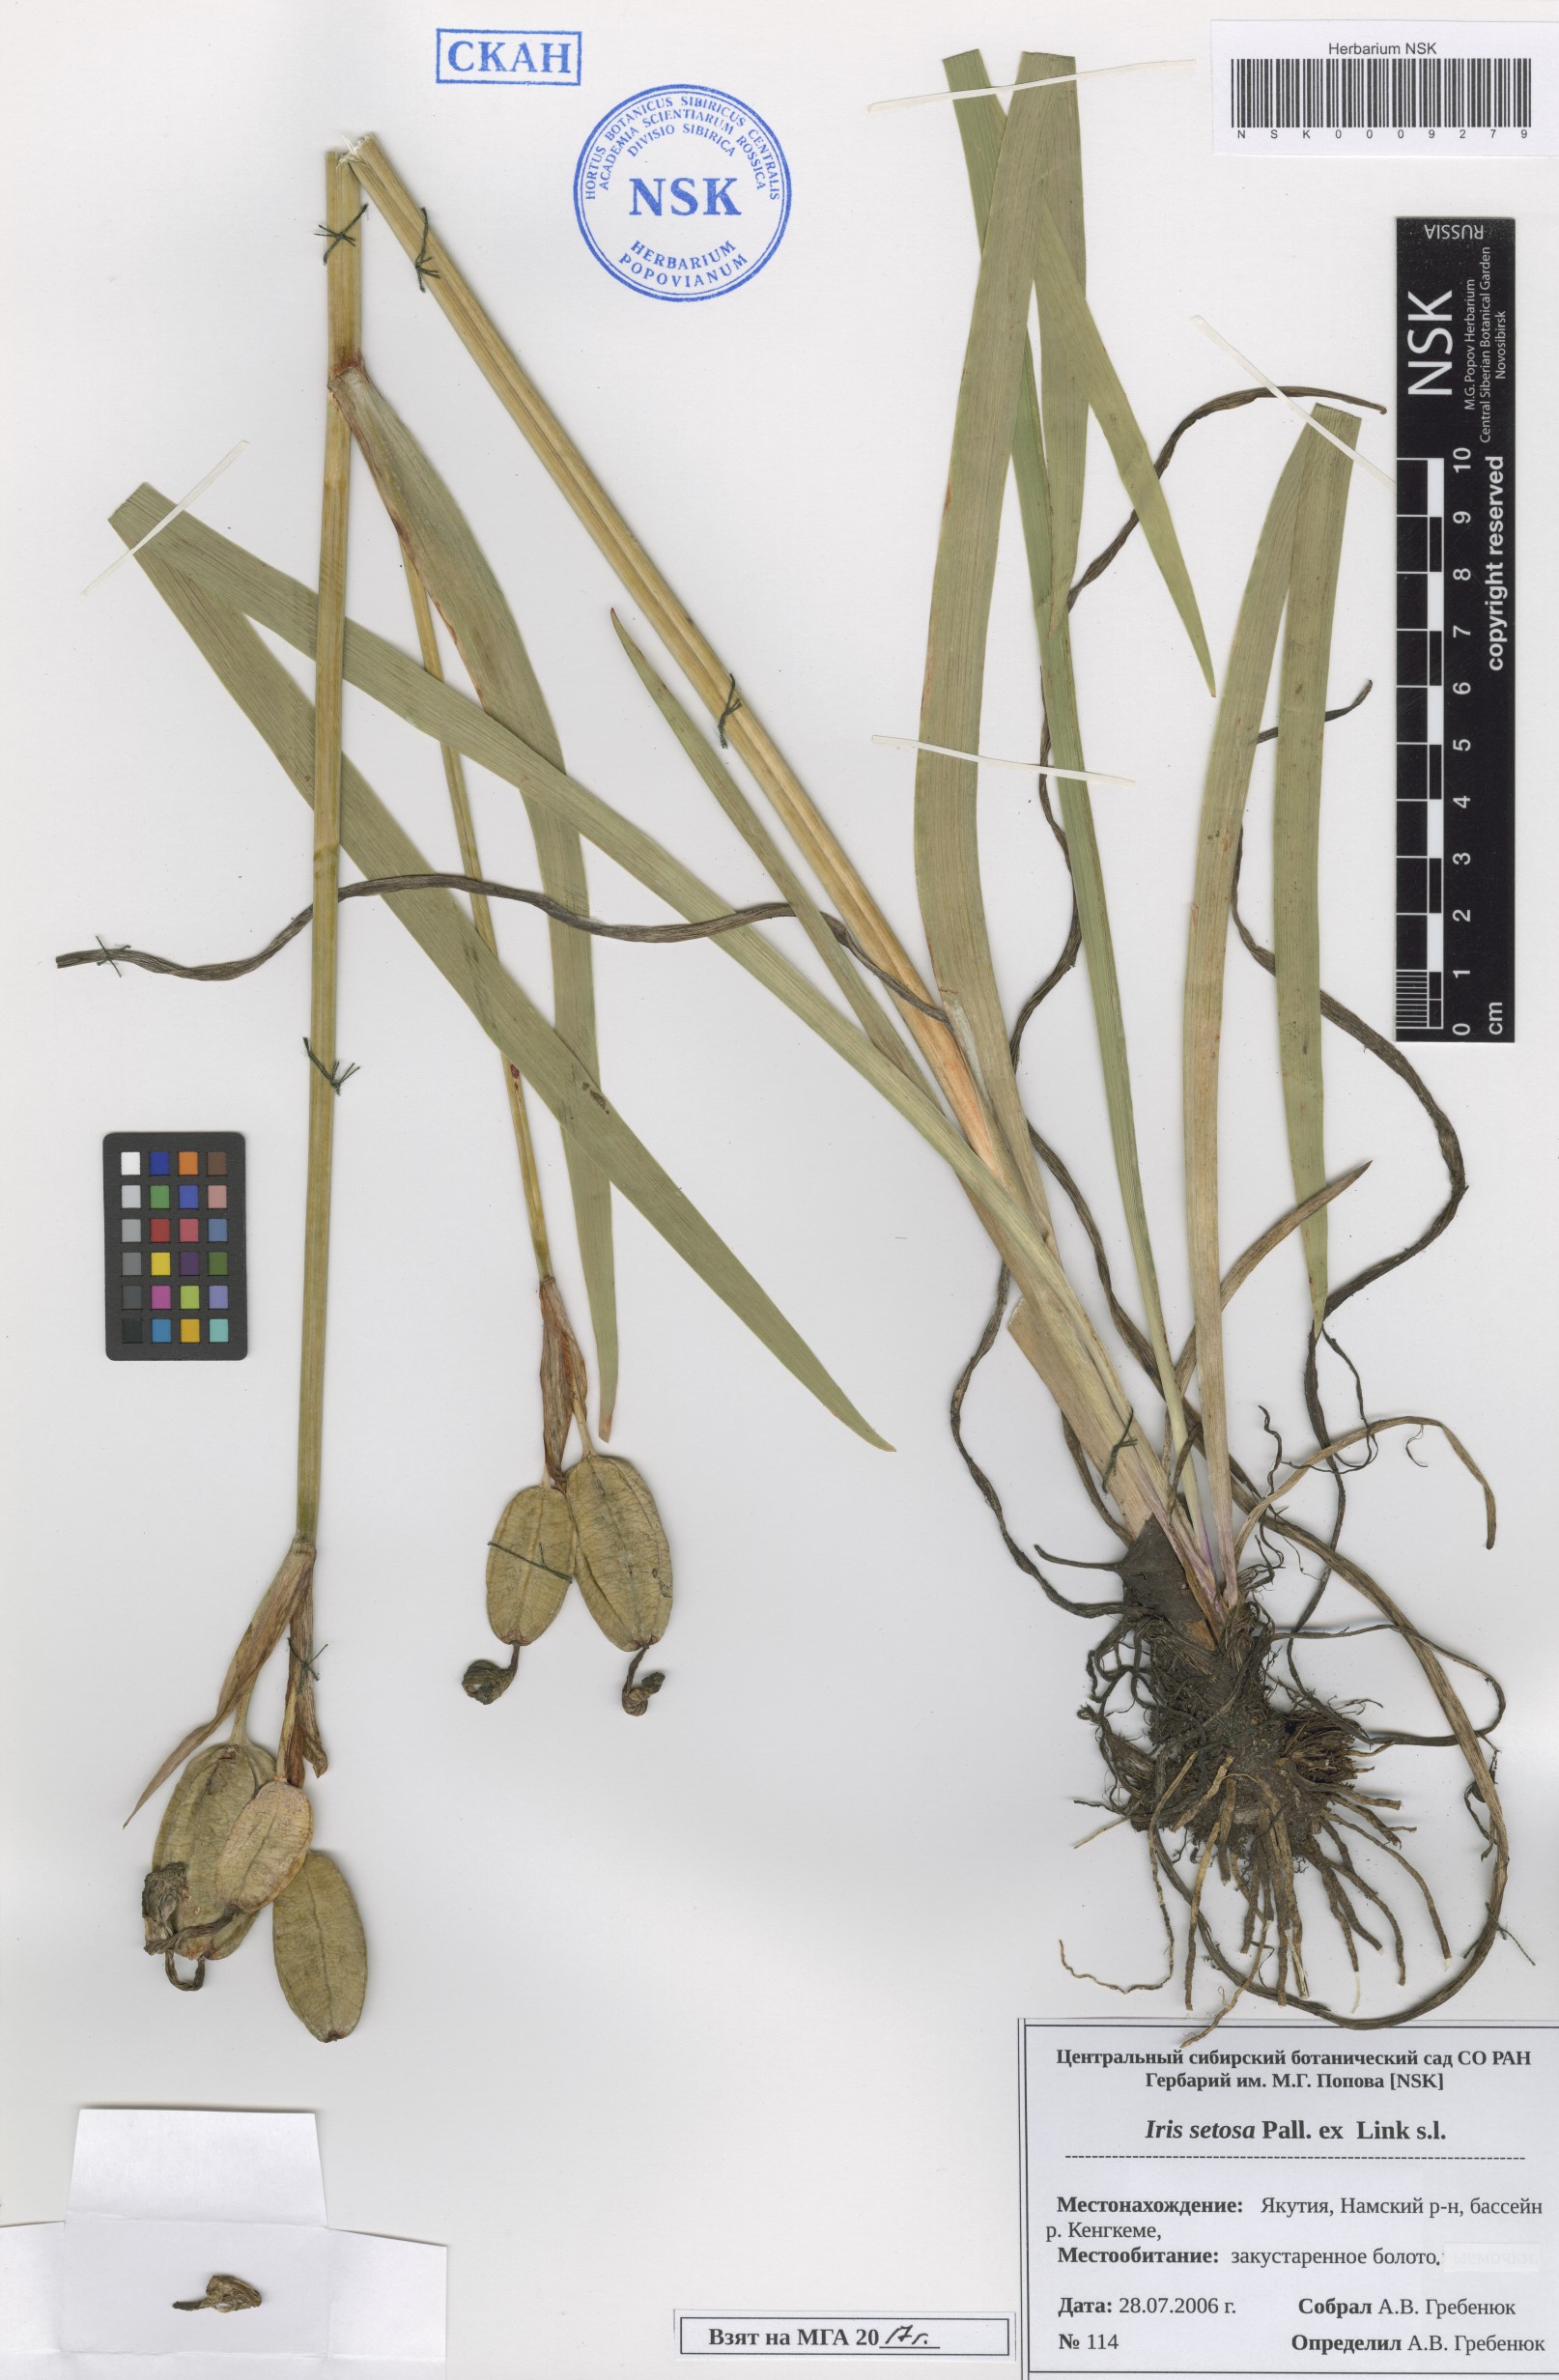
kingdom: Plantae
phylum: Tracheophyta
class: Liliopsida
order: Asparagales
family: Iridaceae
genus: Iris
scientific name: Iris setosa
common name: Arctic blue flag
